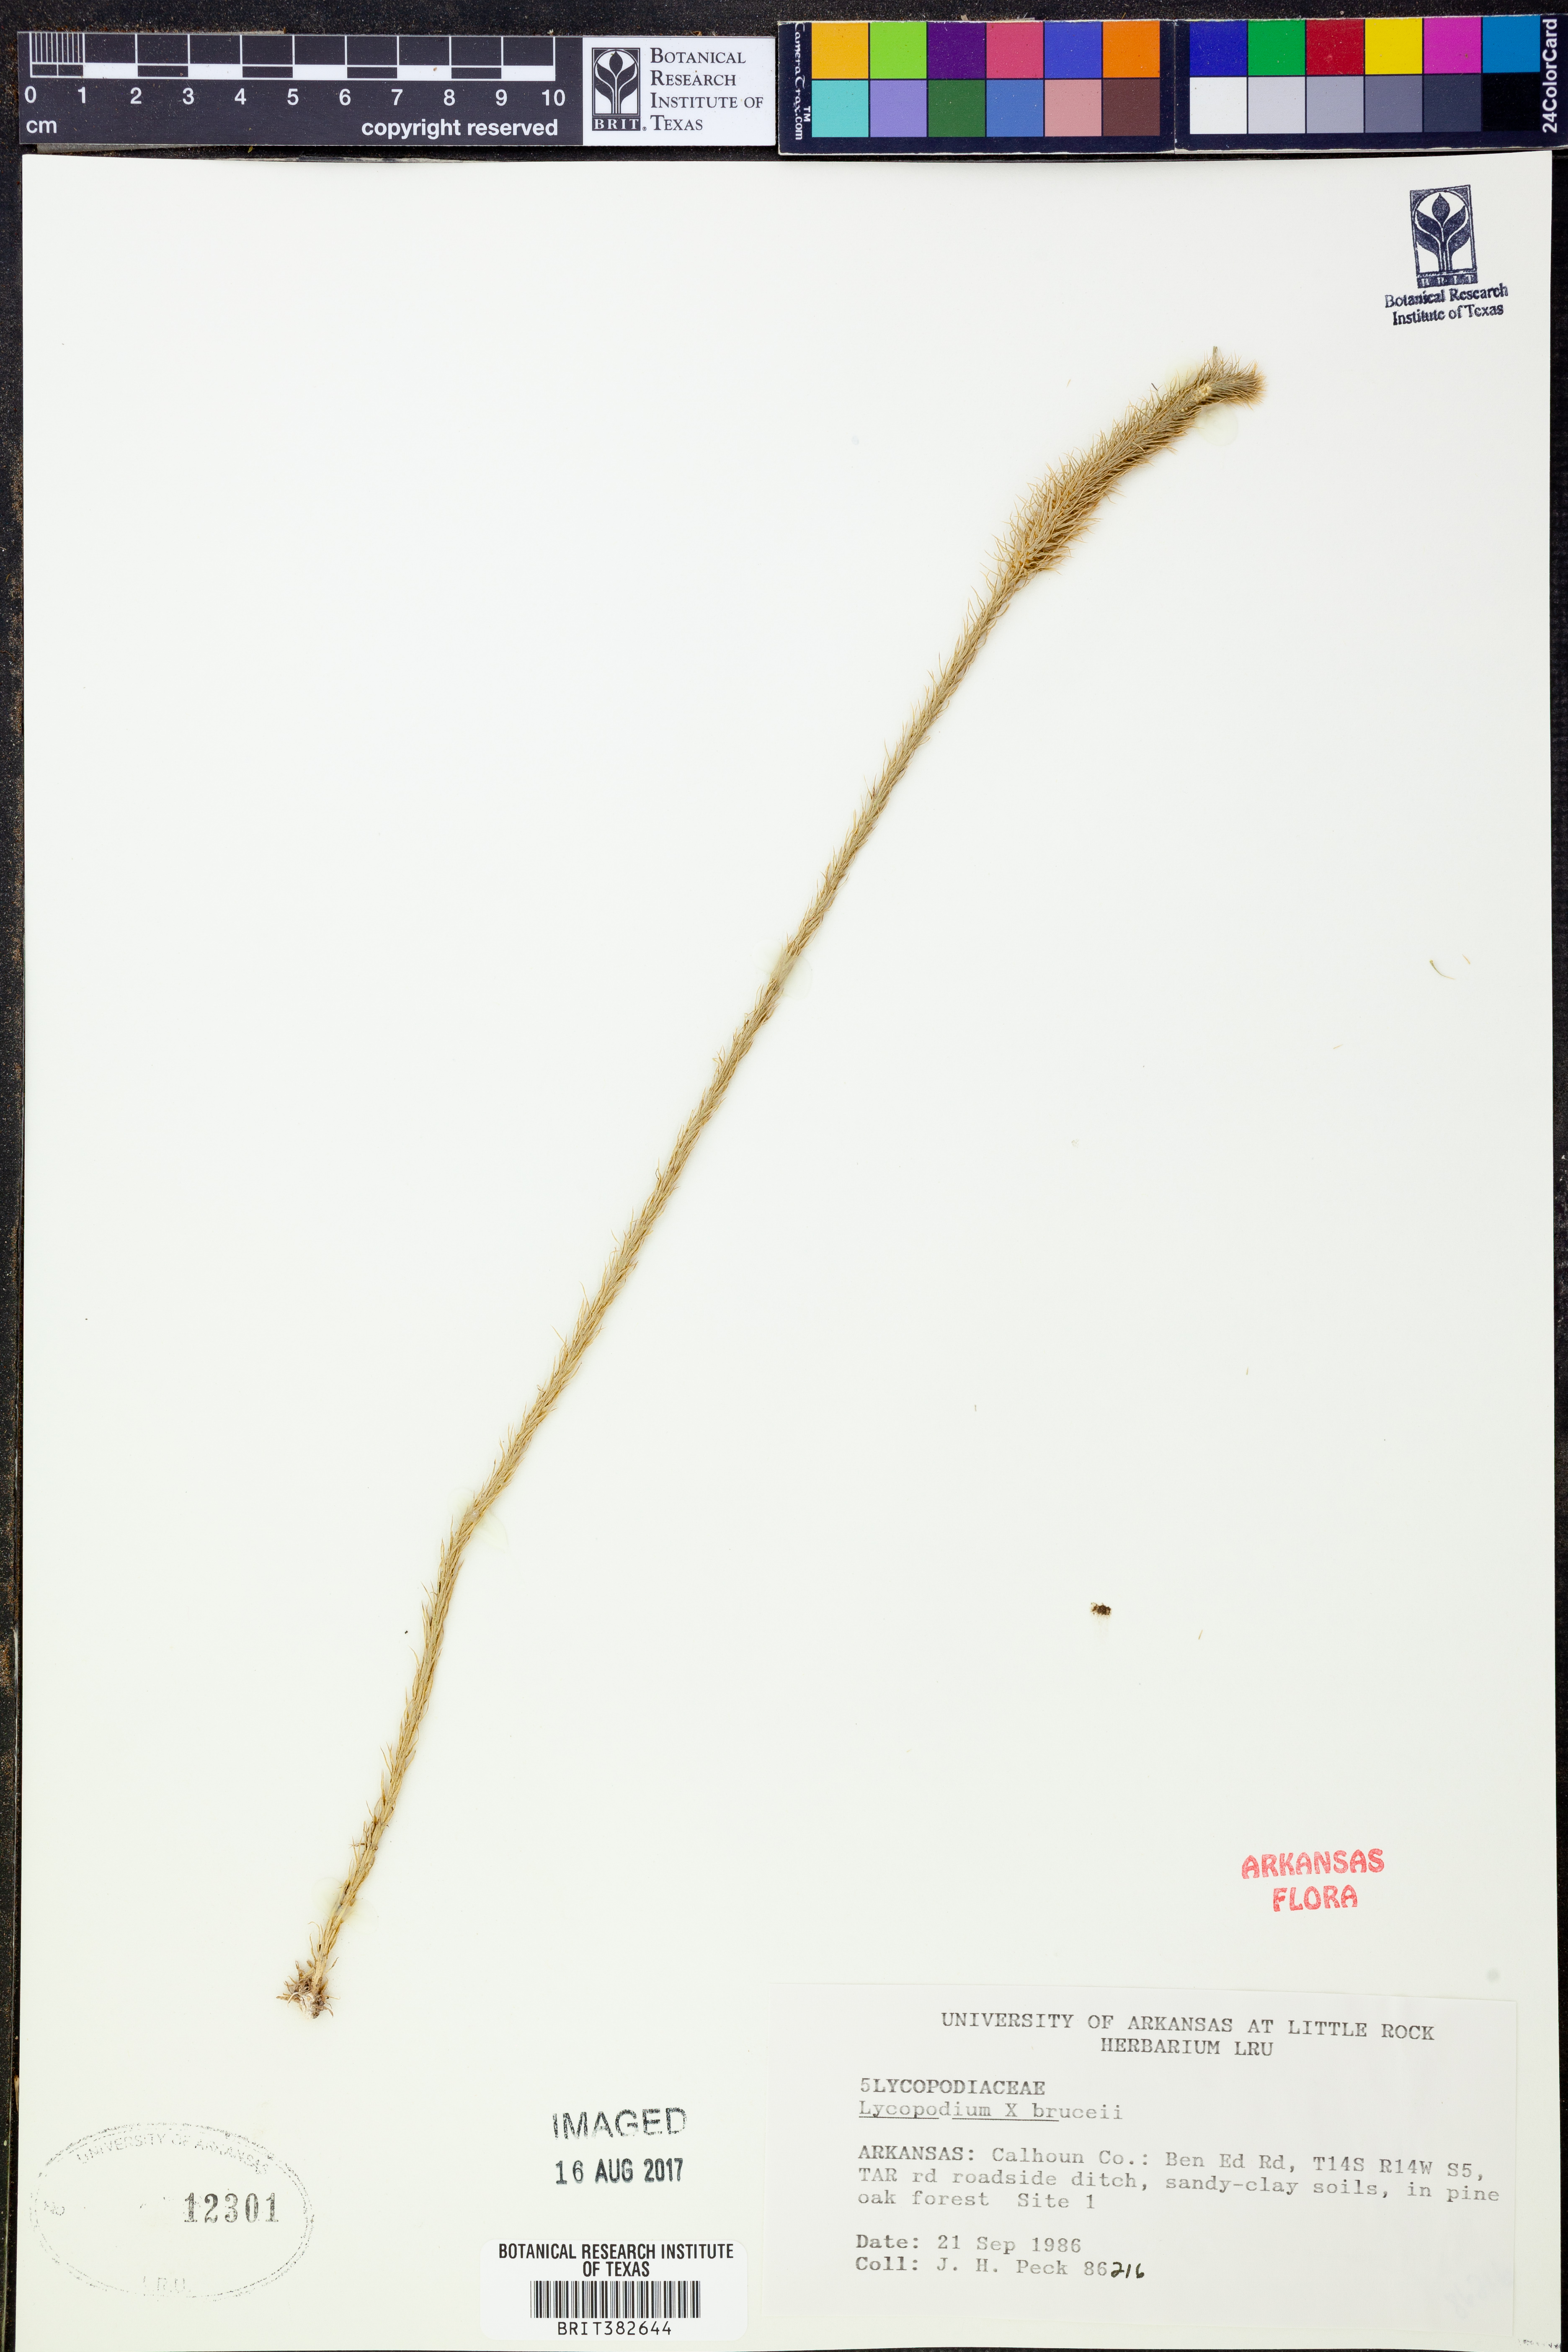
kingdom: Plantae
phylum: Tracheophyta
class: Lycopodiopsida
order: Lycopodiales
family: Lycopodiaceae
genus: Lycopodiella
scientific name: Lycopodiella brucei
